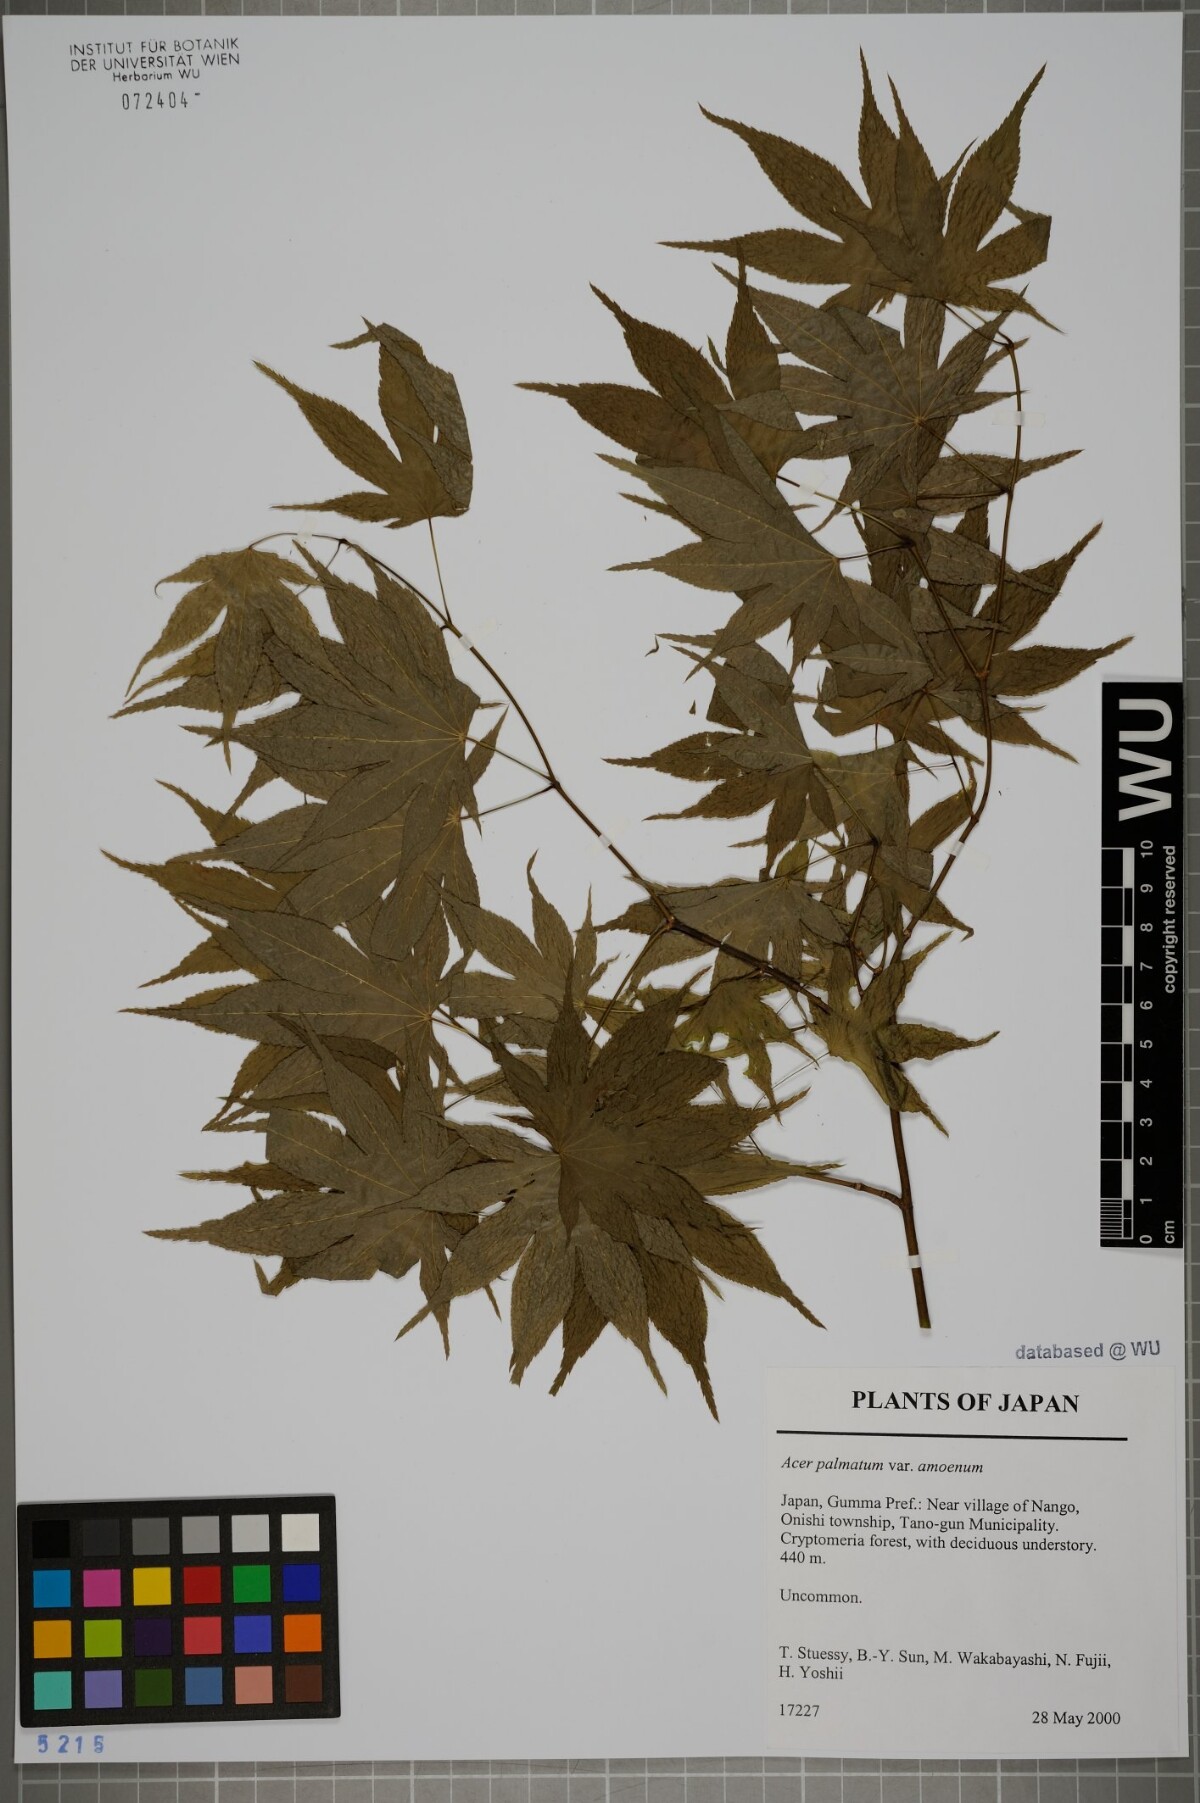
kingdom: Plantae
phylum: Tracheophyta
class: Magnoliopsida
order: Sapindales
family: Sapindaceae
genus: Acer
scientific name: Acer palmatum
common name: Japanese maple
